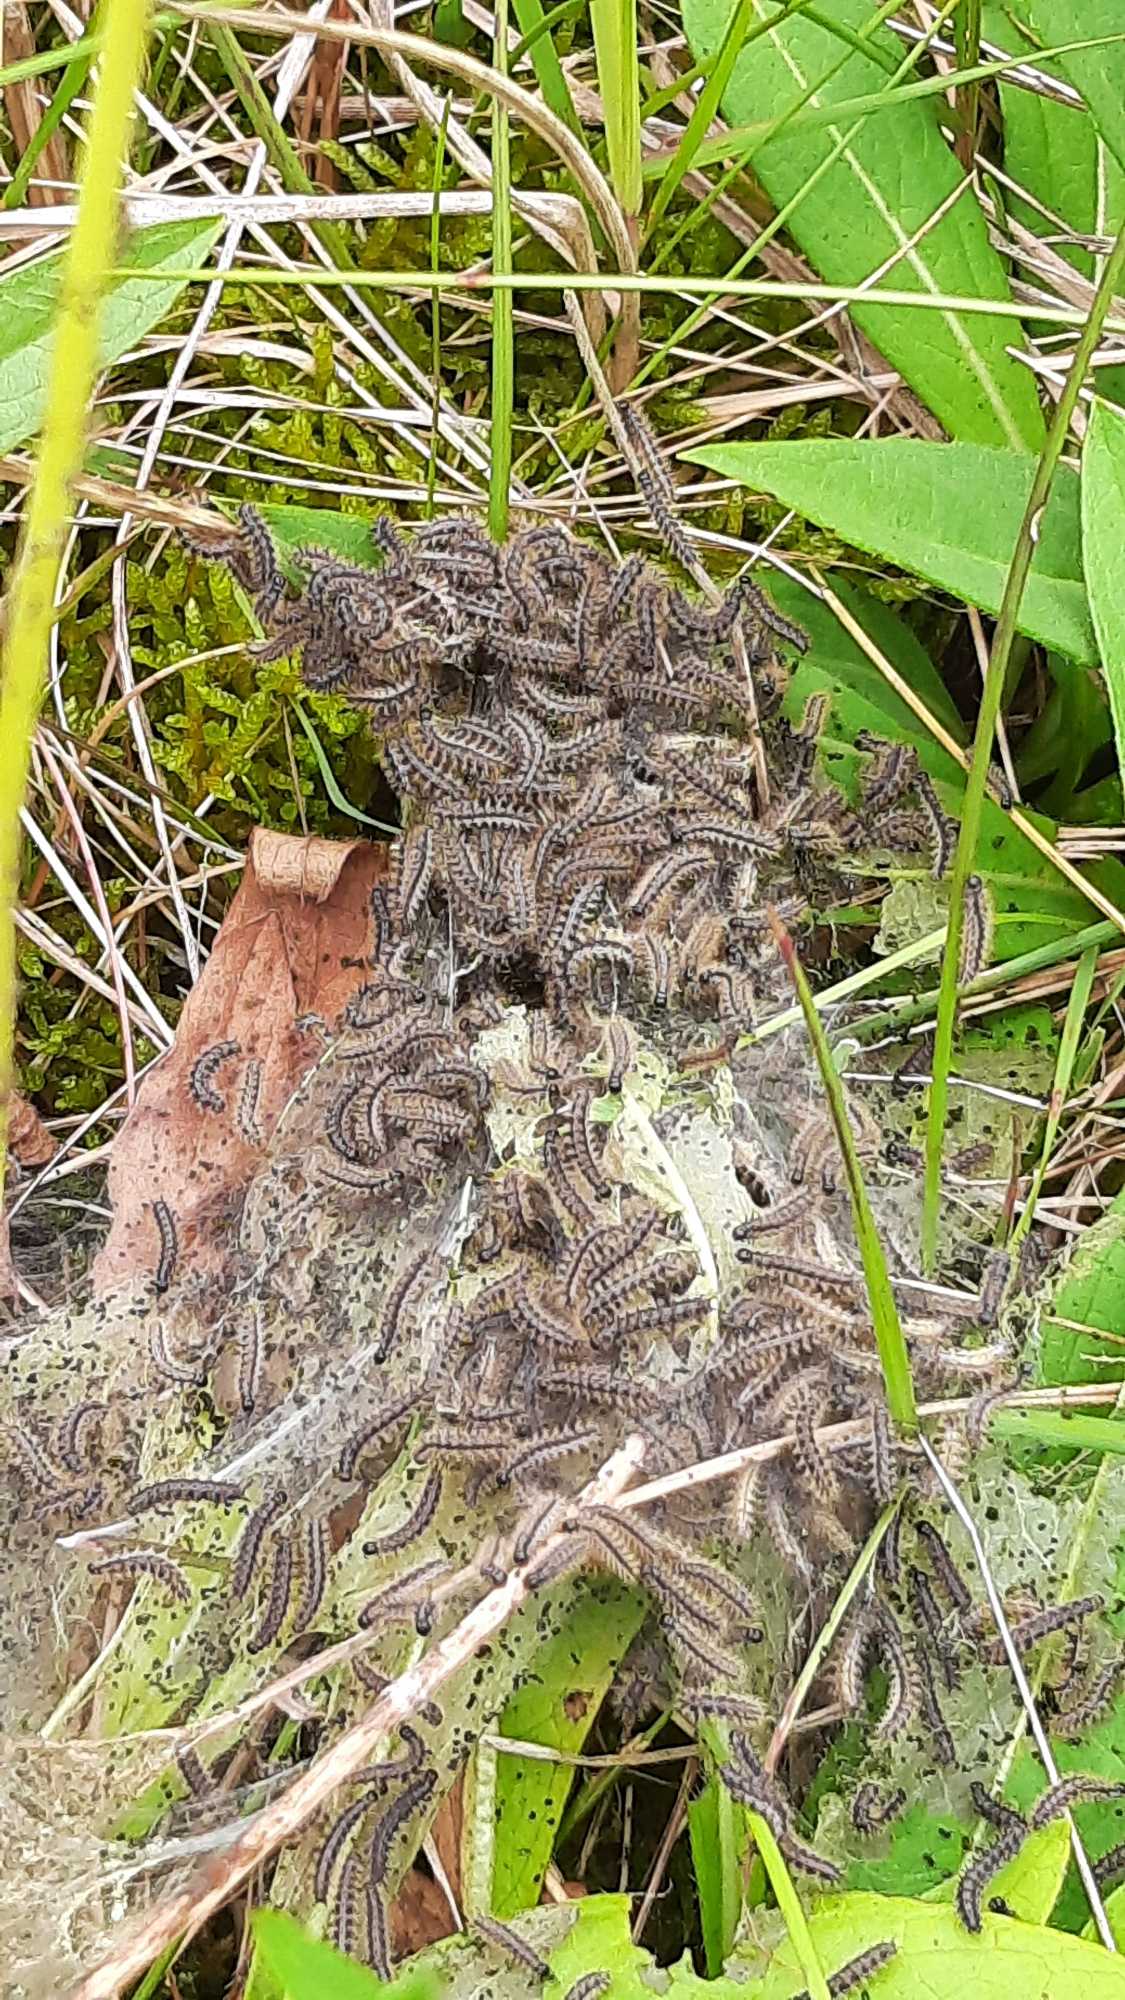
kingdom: Animalia
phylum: Arthropoda
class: Insecta
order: Lepidoptera
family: Nymphalidae
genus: Euphydryas
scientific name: Euphydryas aurinia
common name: Hedepletvinge
